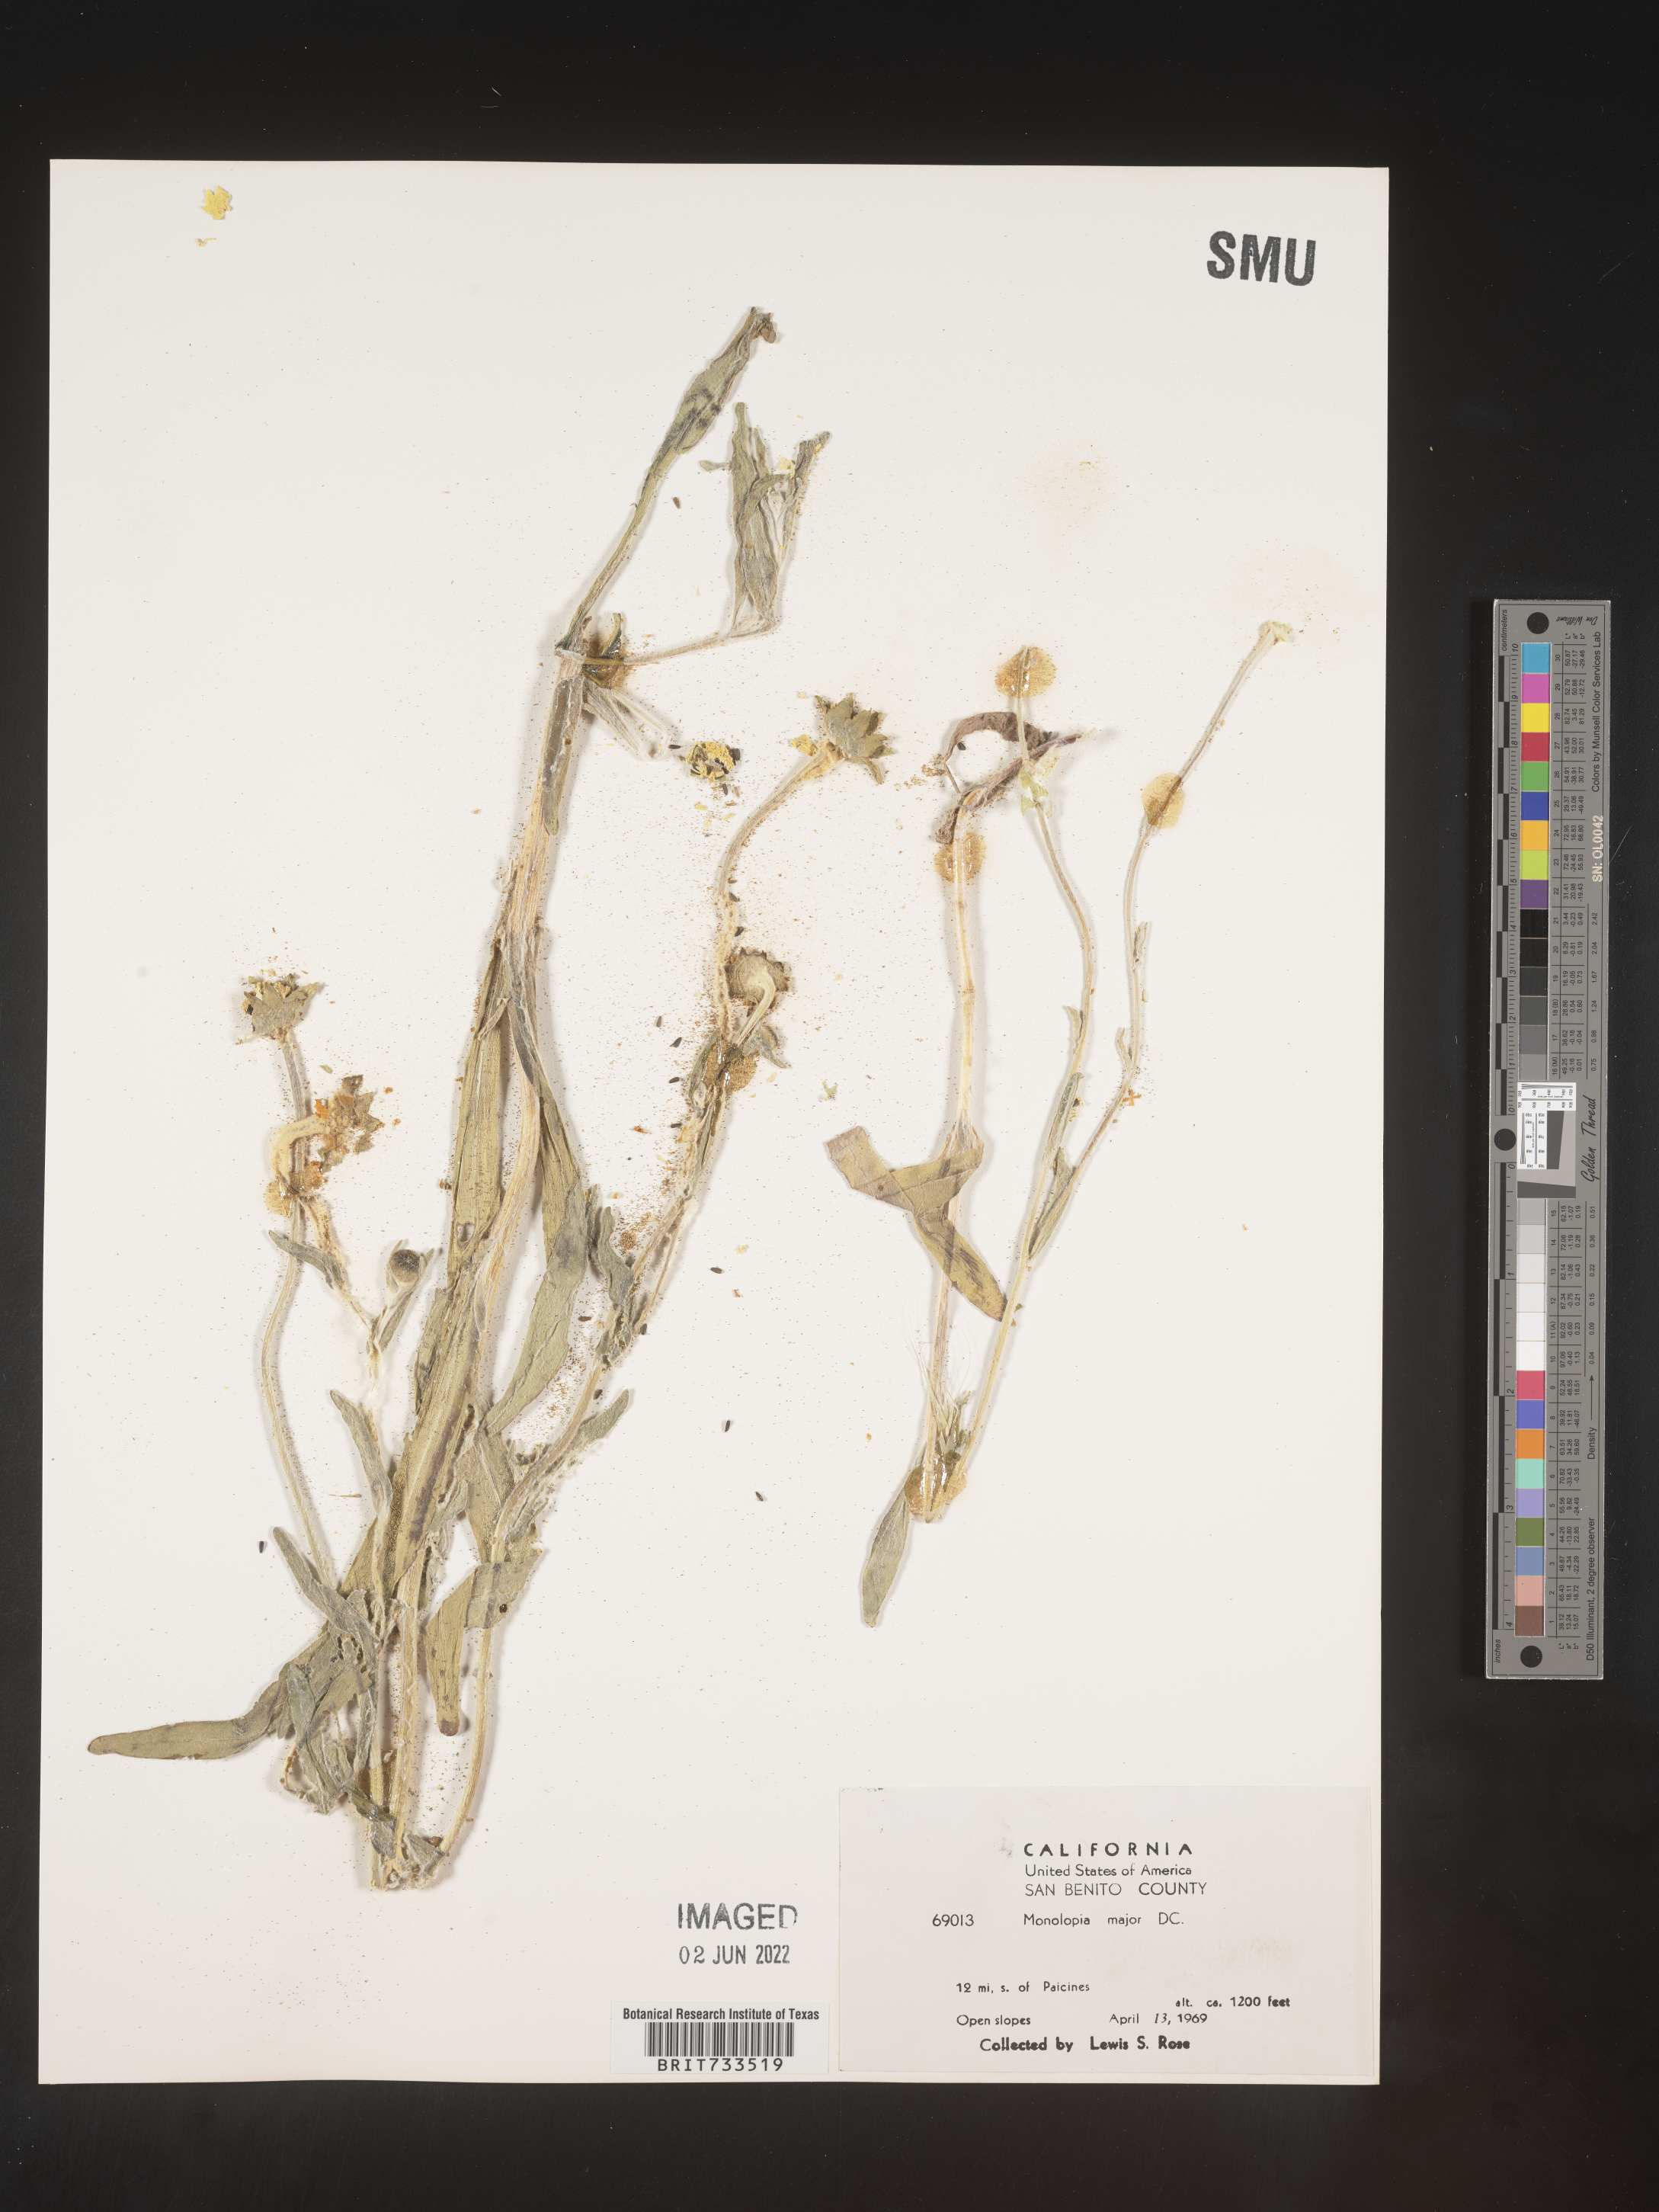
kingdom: Plantae
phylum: Tracheophyta
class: Magnoliopsida
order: Asterales
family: Asteraceae
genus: Monolopia
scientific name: Monolopia major
